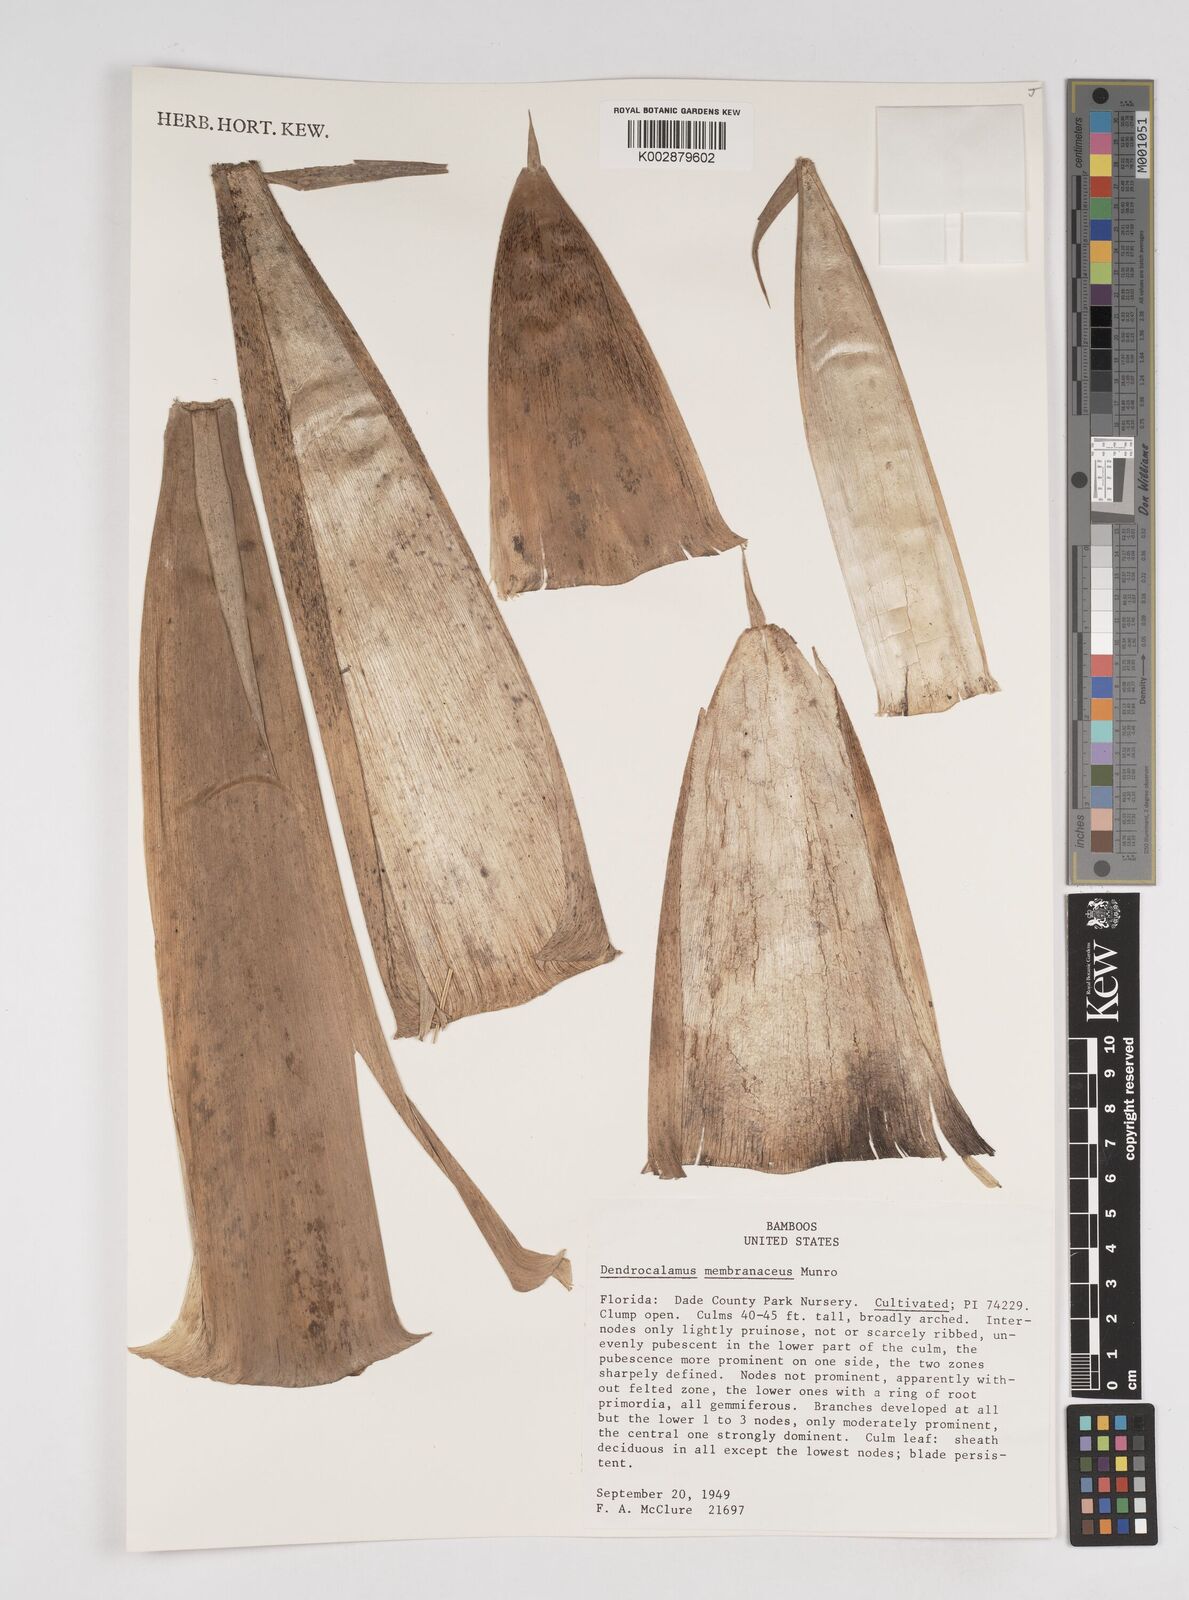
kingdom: Plantae
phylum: Tracheophyta
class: Liliopsida
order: Poales
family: Poaceae
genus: Dendrocalamus
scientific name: Dendrocalamus membranaceus
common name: White bamboo
